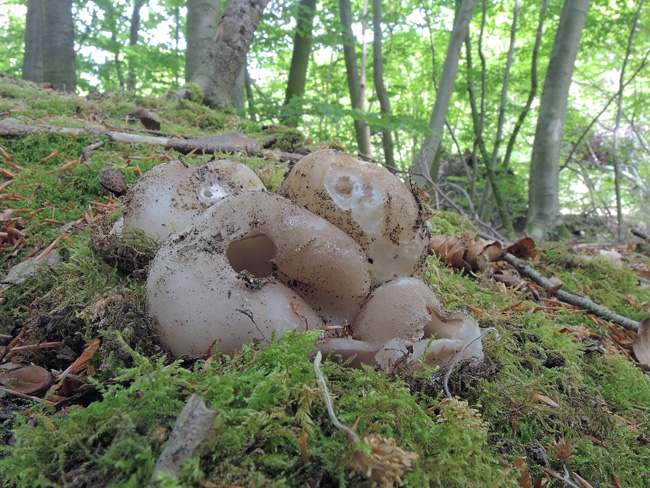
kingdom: Fungi
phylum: Ascomycota
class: Pezizomycetes
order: Pezizales
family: Pezizaceae
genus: Sarcosphaera
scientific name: Sarcosphaera coronaria
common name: stjernebæger
